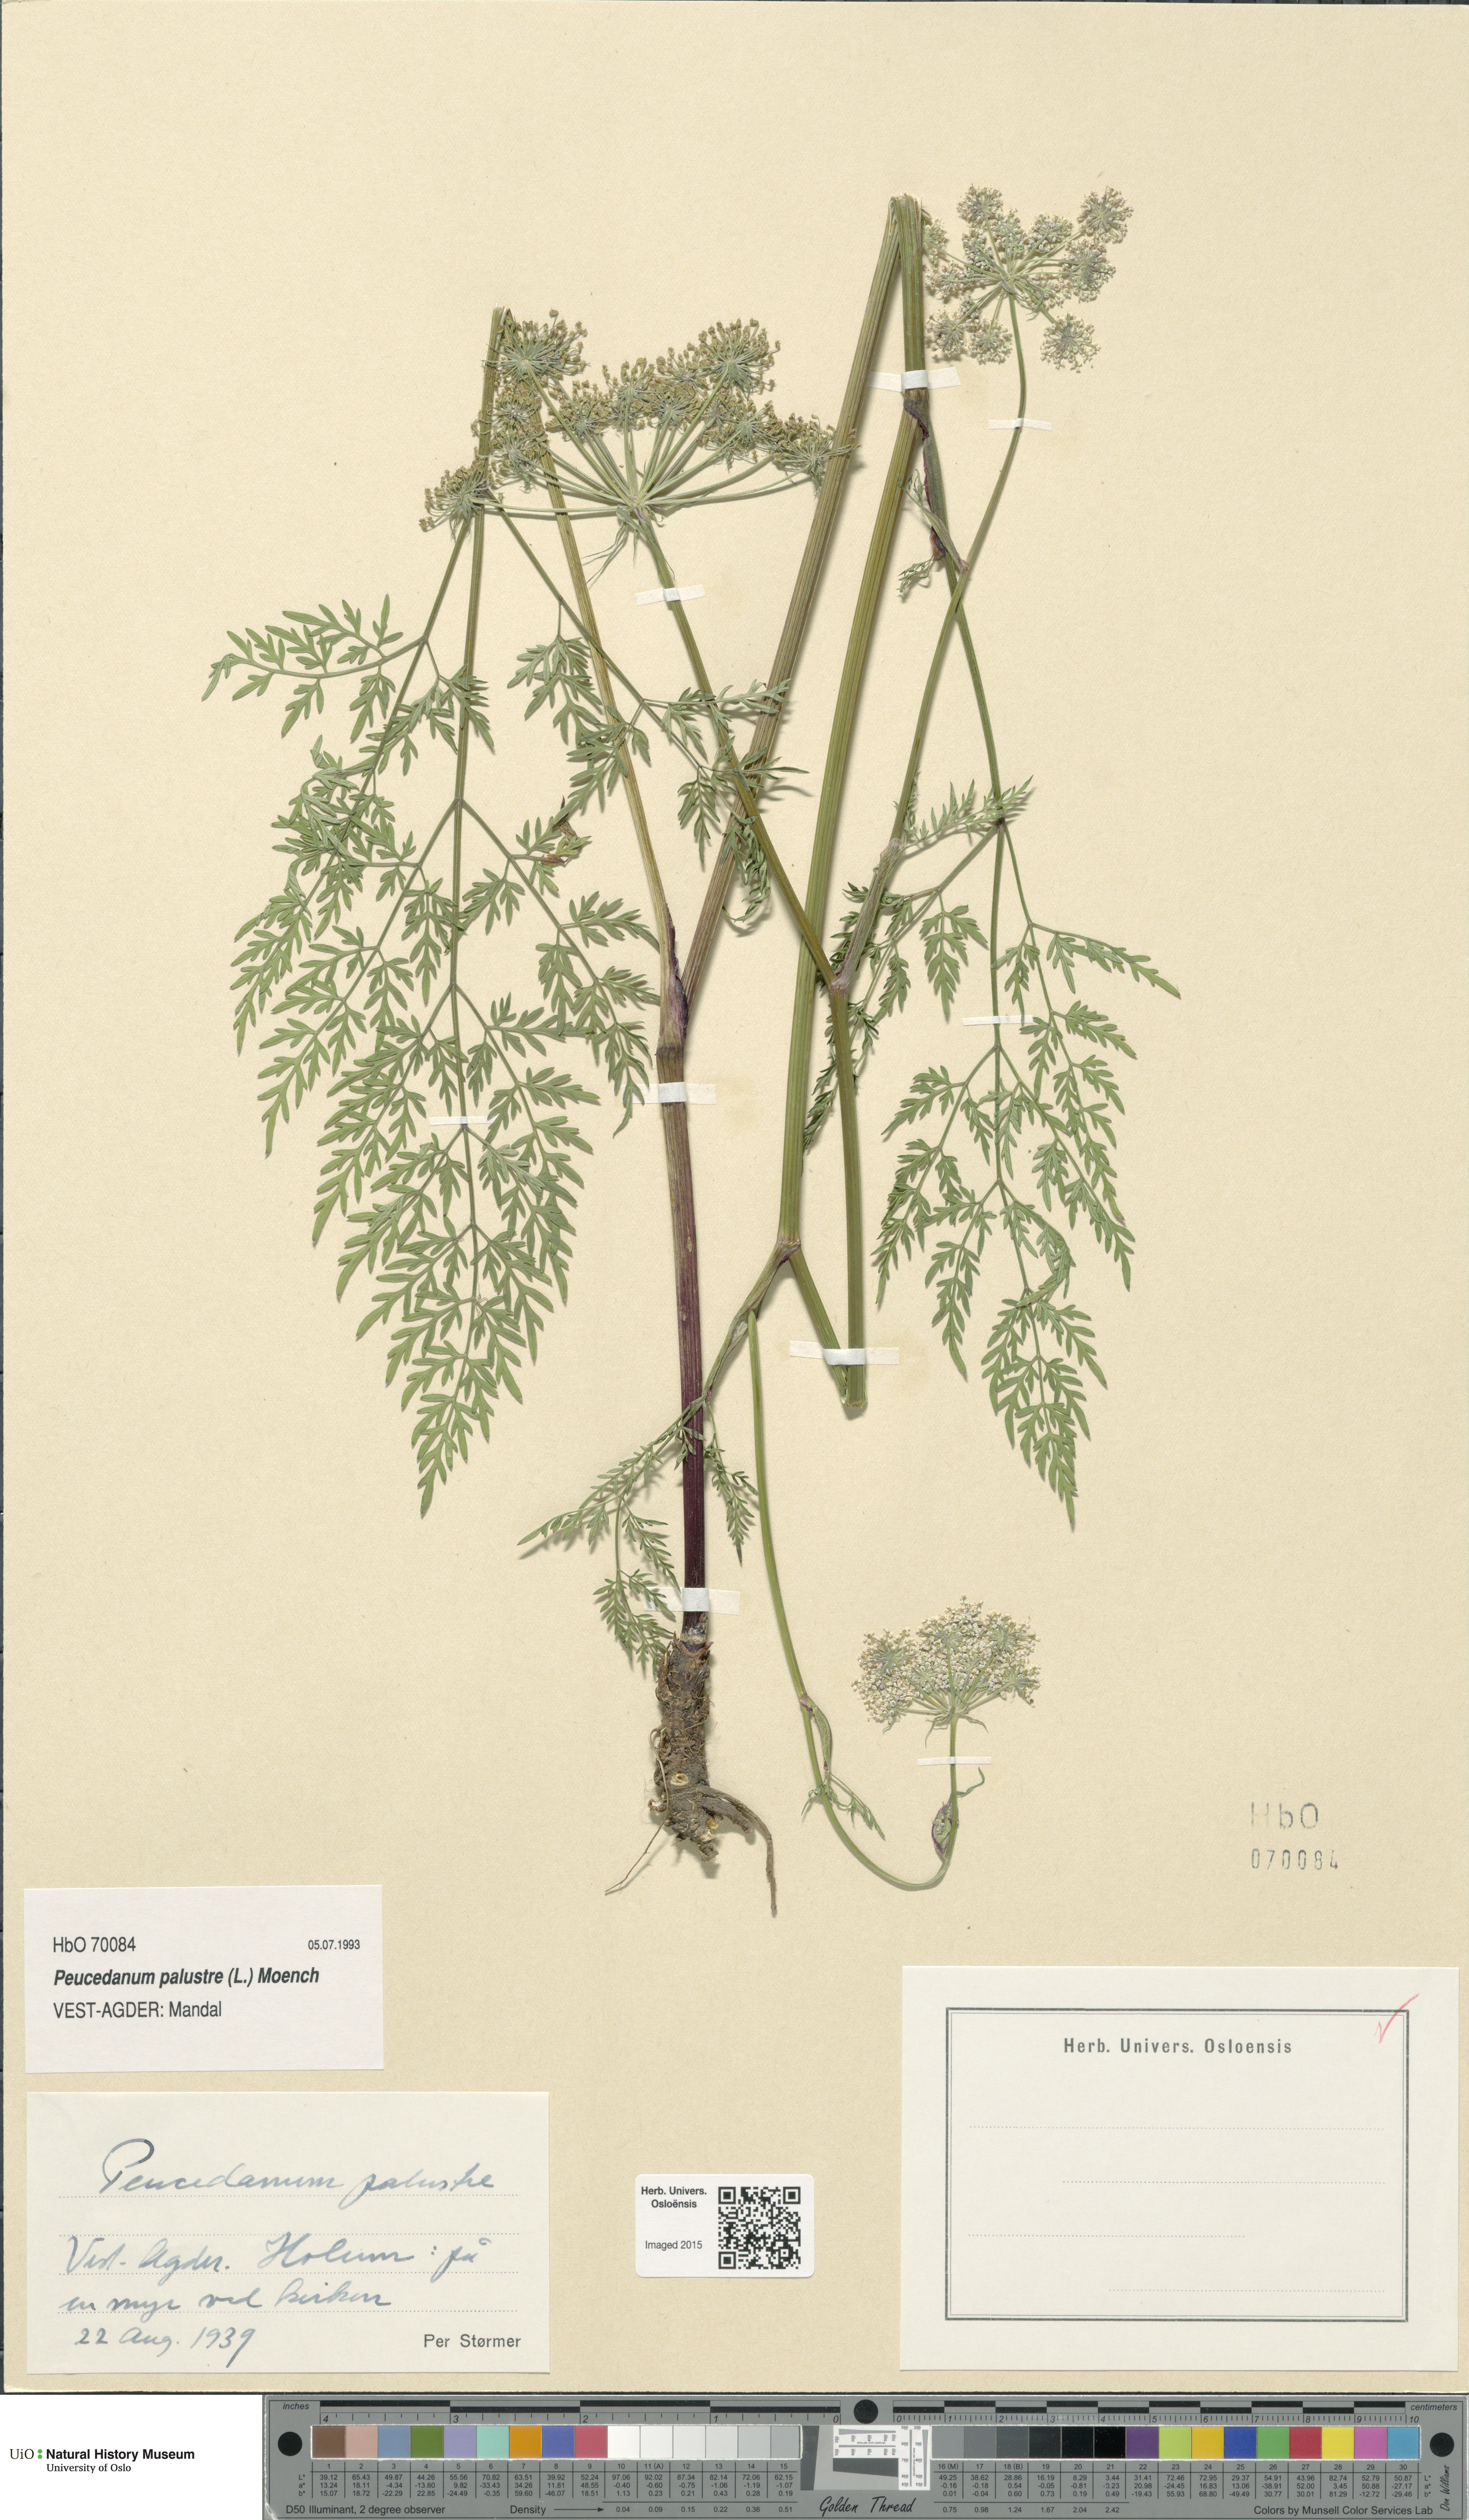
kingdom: Plantae
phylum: Tracheophyta
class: Magnoliopsida
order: Apiales
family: Apiaceae
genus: Thysselinum
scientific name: Thysselinum palustre
